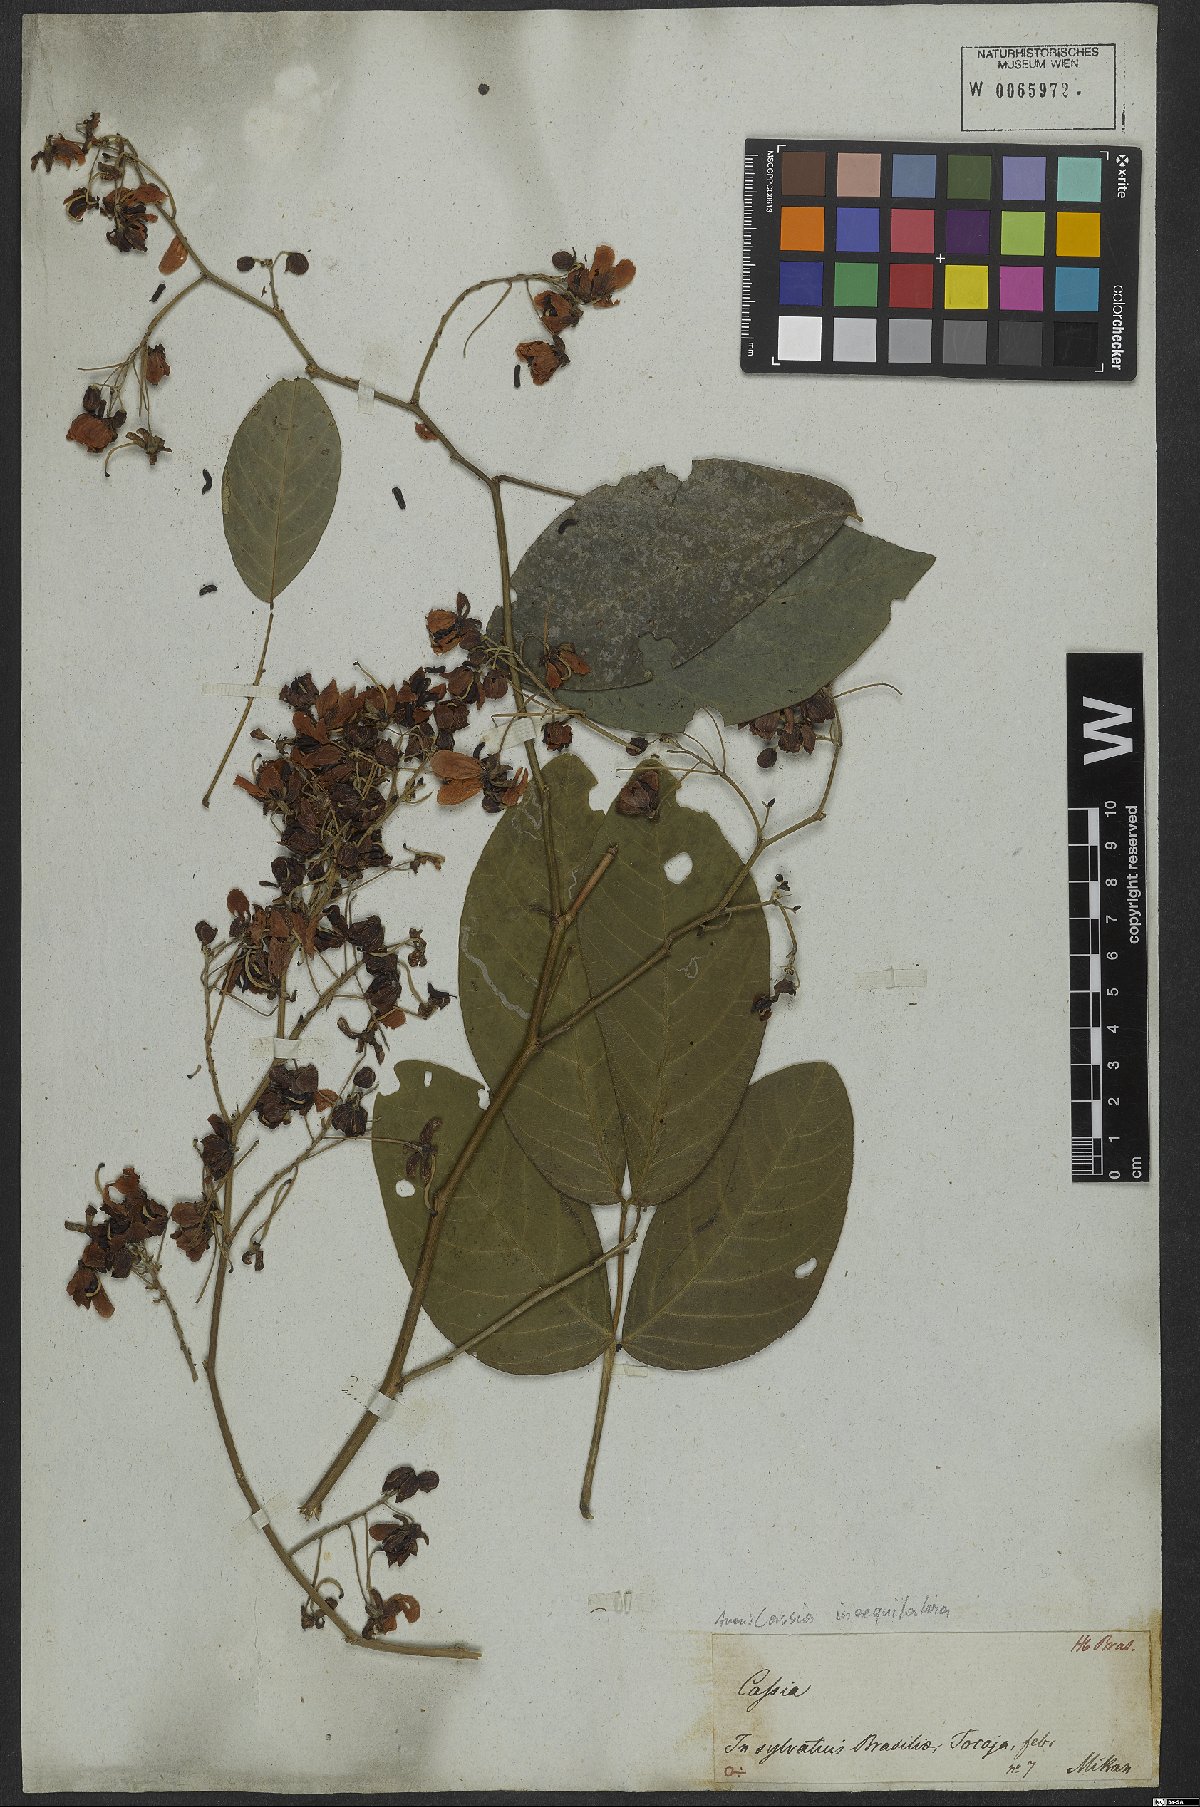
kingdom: Plantae
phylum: Tracheophyta
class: Magnoliopsida
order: Fabales
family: Fabaceae
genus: Senna
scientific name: Senna bacillaris
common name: West indian showertree
